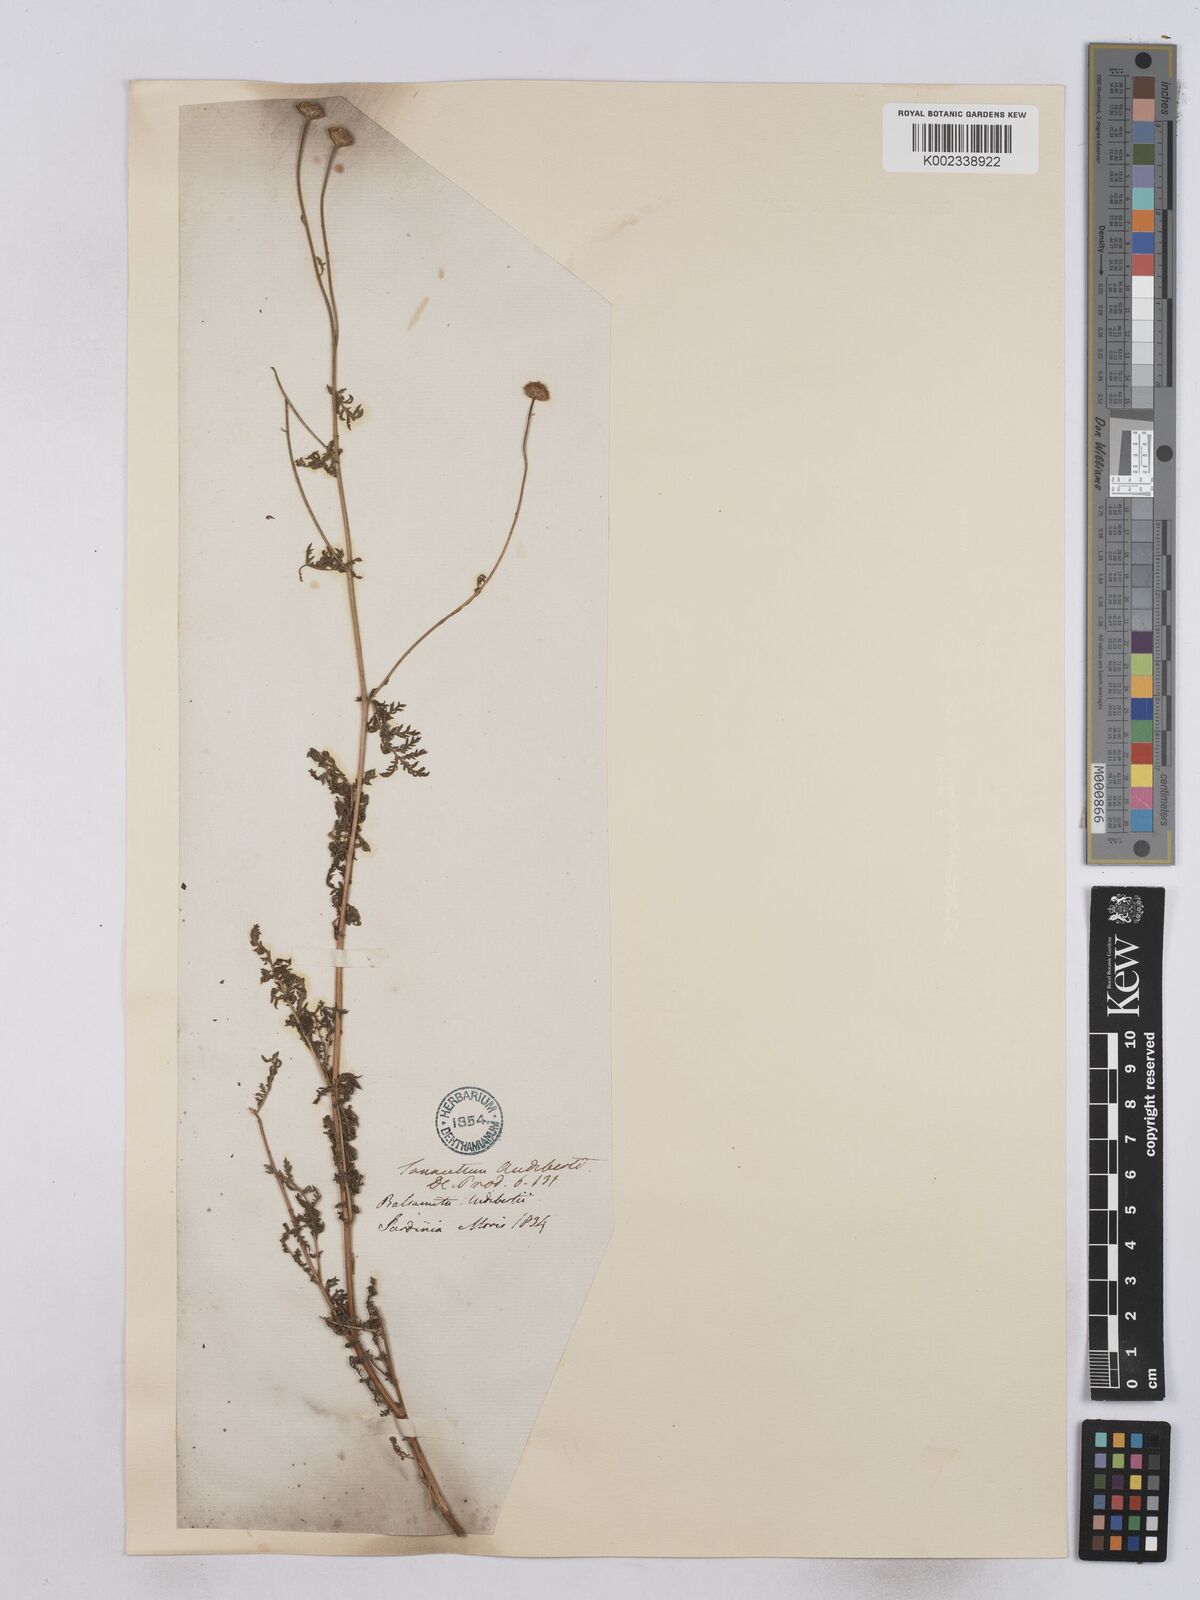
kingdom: Plantae
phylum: Tracheophyta
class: Magnoliopsida
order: Asterales
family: Asteraceae
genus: Tanacetum
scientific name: Tanacetum audibertii
